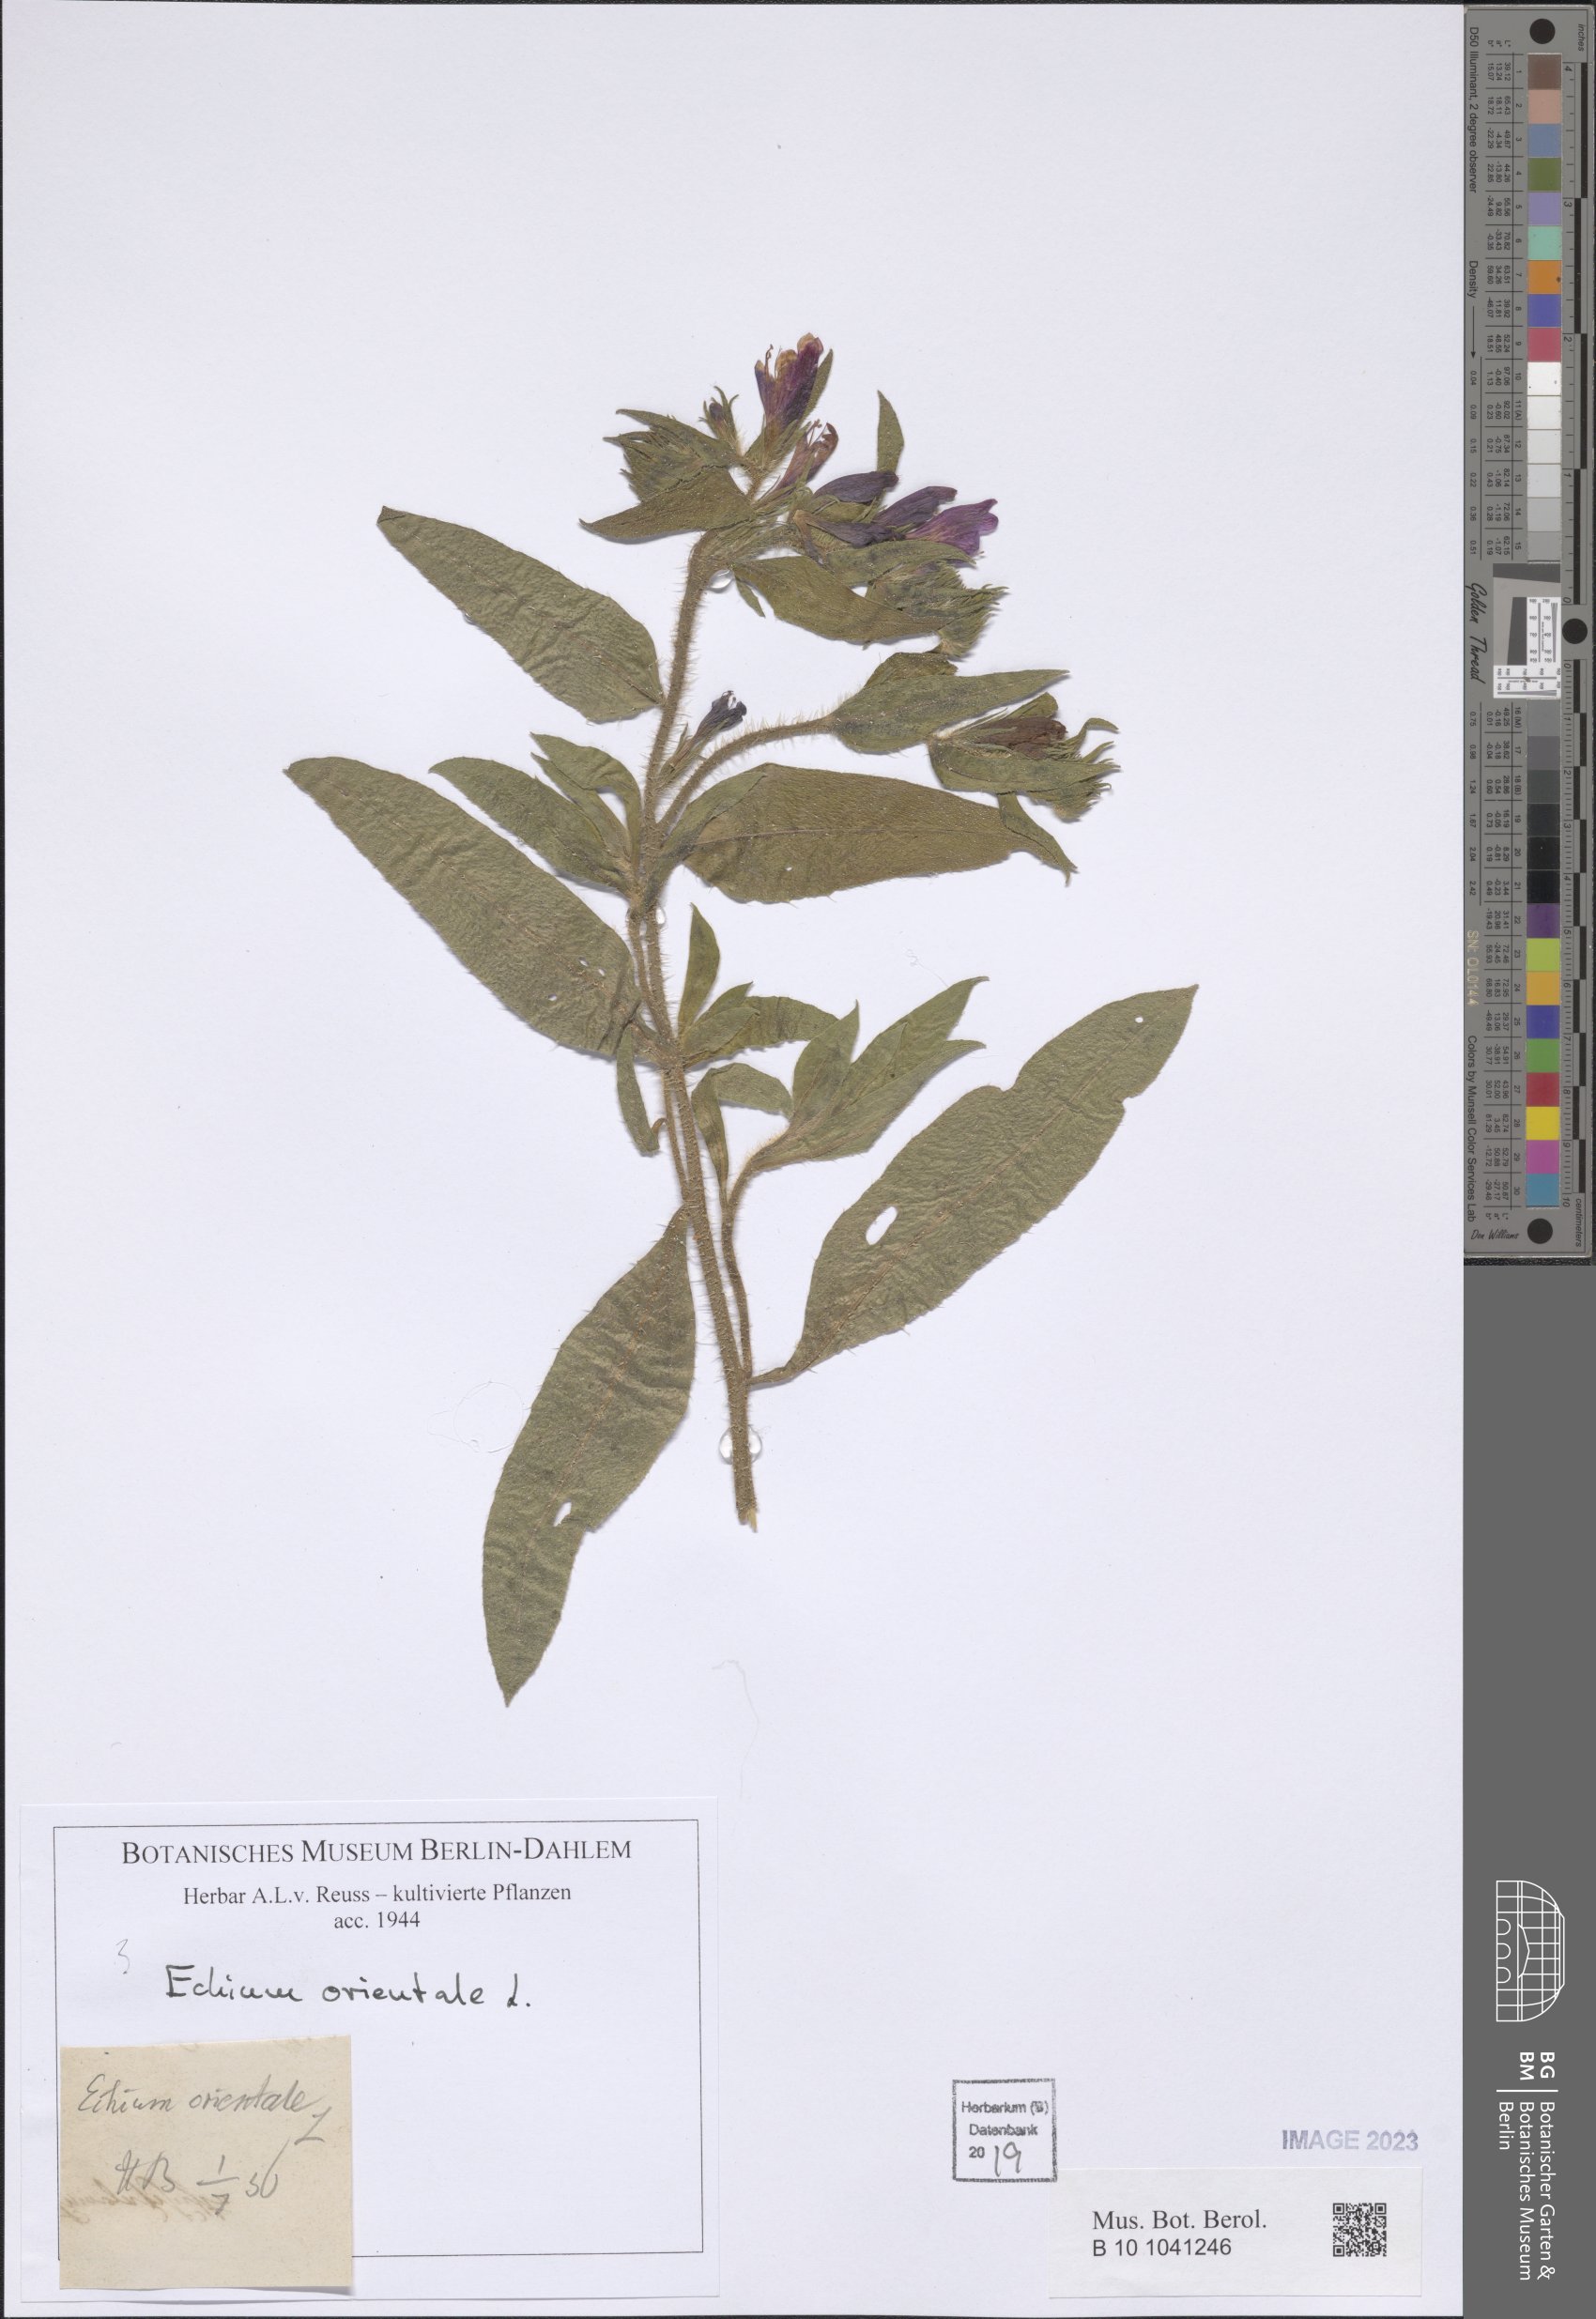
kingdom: Plantae
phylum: Tracheophyta
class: Magnoliopsida
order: Boraginales
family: Boraginaceae
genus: Echium
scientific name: Echium orientale
